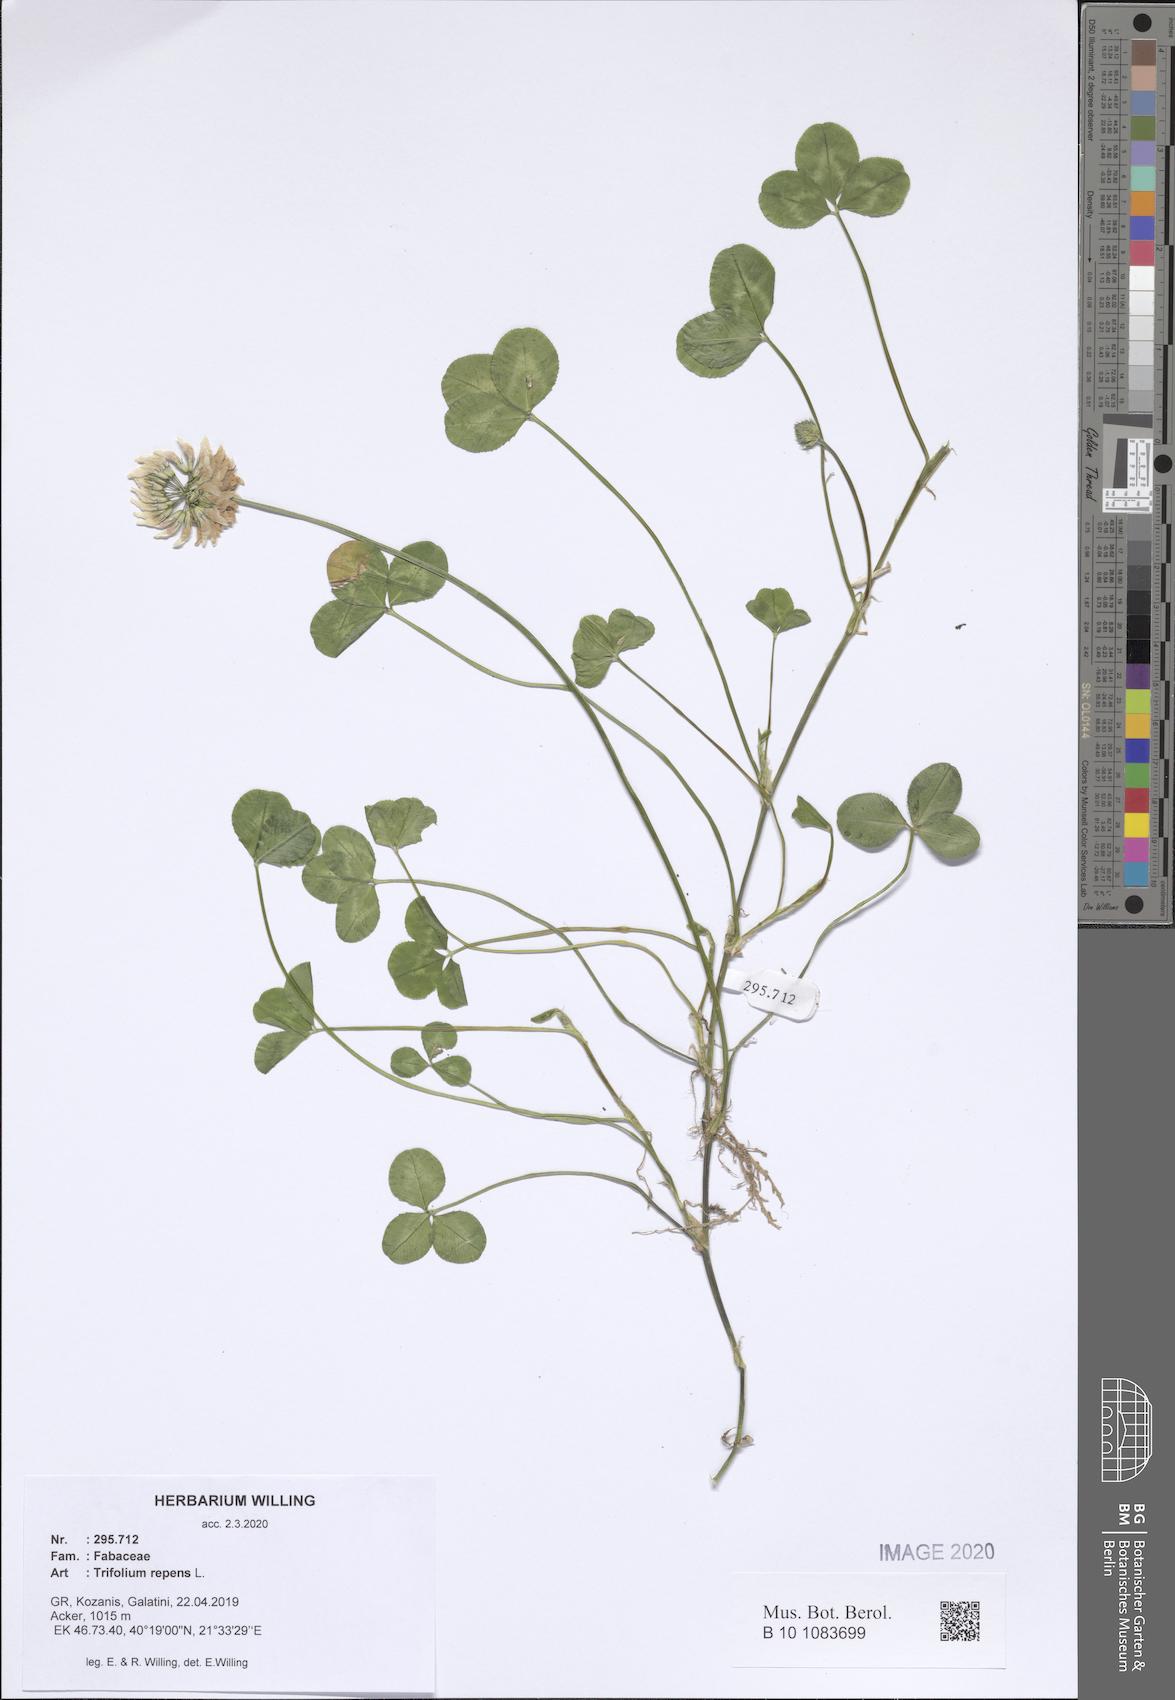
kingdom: Plantae
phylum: Tracheophyta
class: Magnoliopsida
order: Fabales
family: Fabaceae
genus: Trifolium
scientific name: Trifolium repens
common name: White clover
